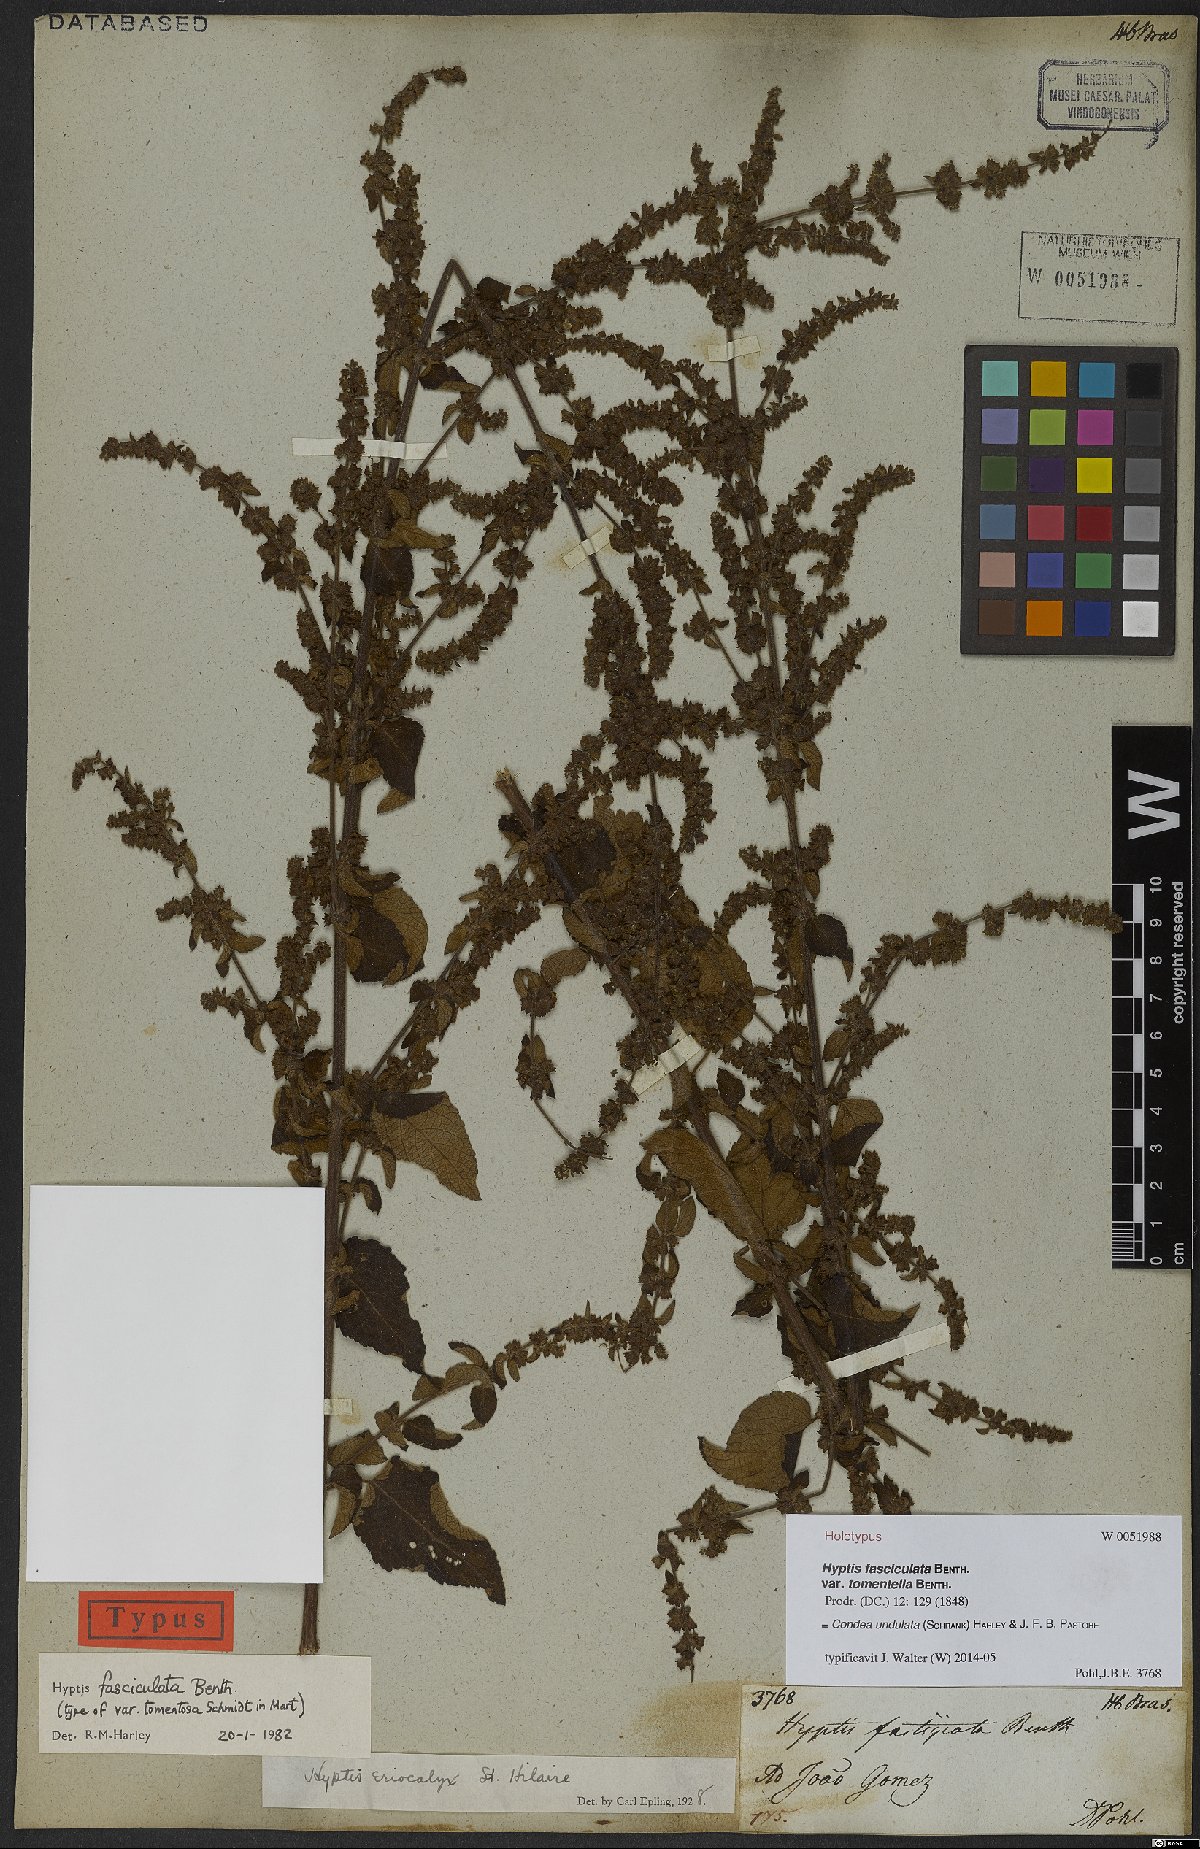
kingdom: Plantae
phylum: Tracheophyta
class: Magnoliopsida
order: Lamiales
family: Lamiaceae
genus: Condea
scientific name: Condea undulata
